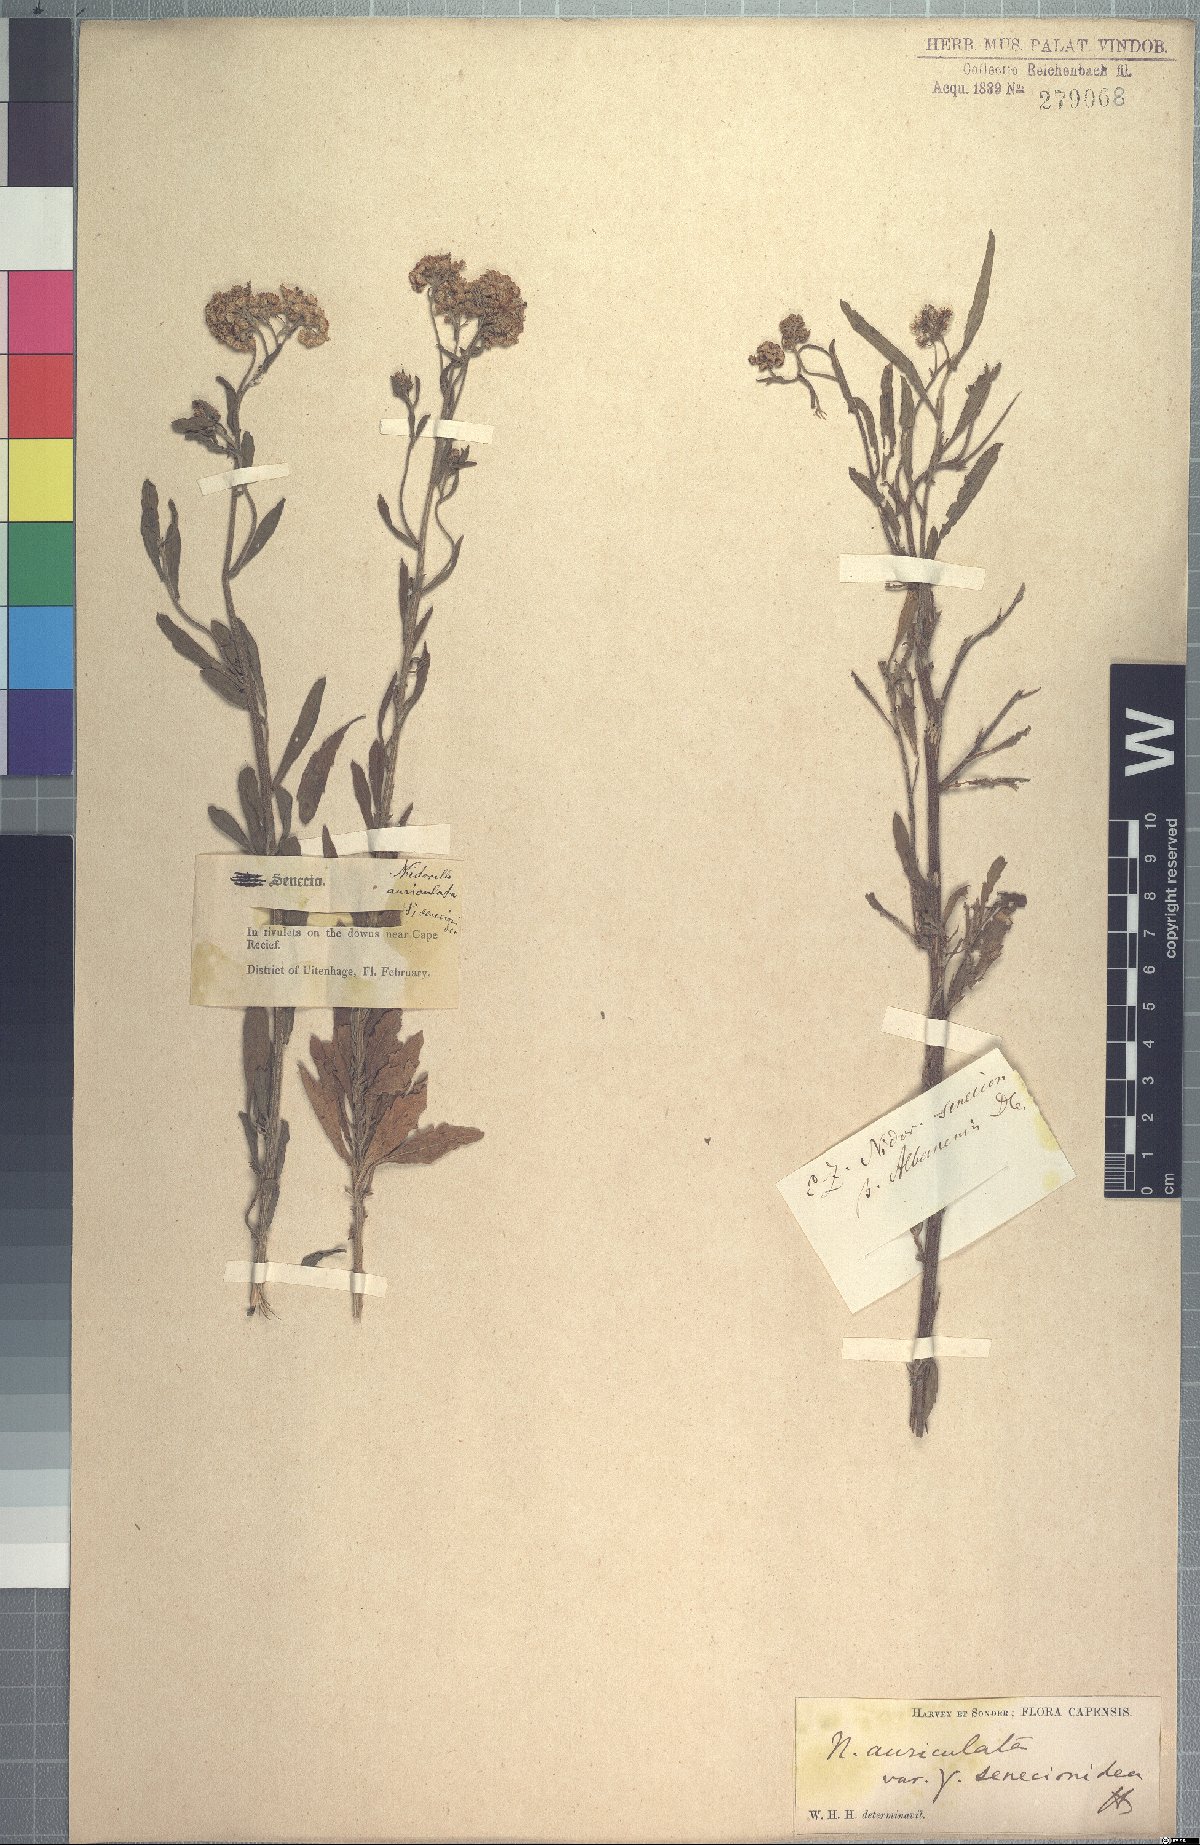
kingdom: Plantae
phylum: Tracheophyta
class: Magnoliopsida
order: Asterales
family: Asteraceae
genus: Nidorella
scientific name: Nidorella auriculata
